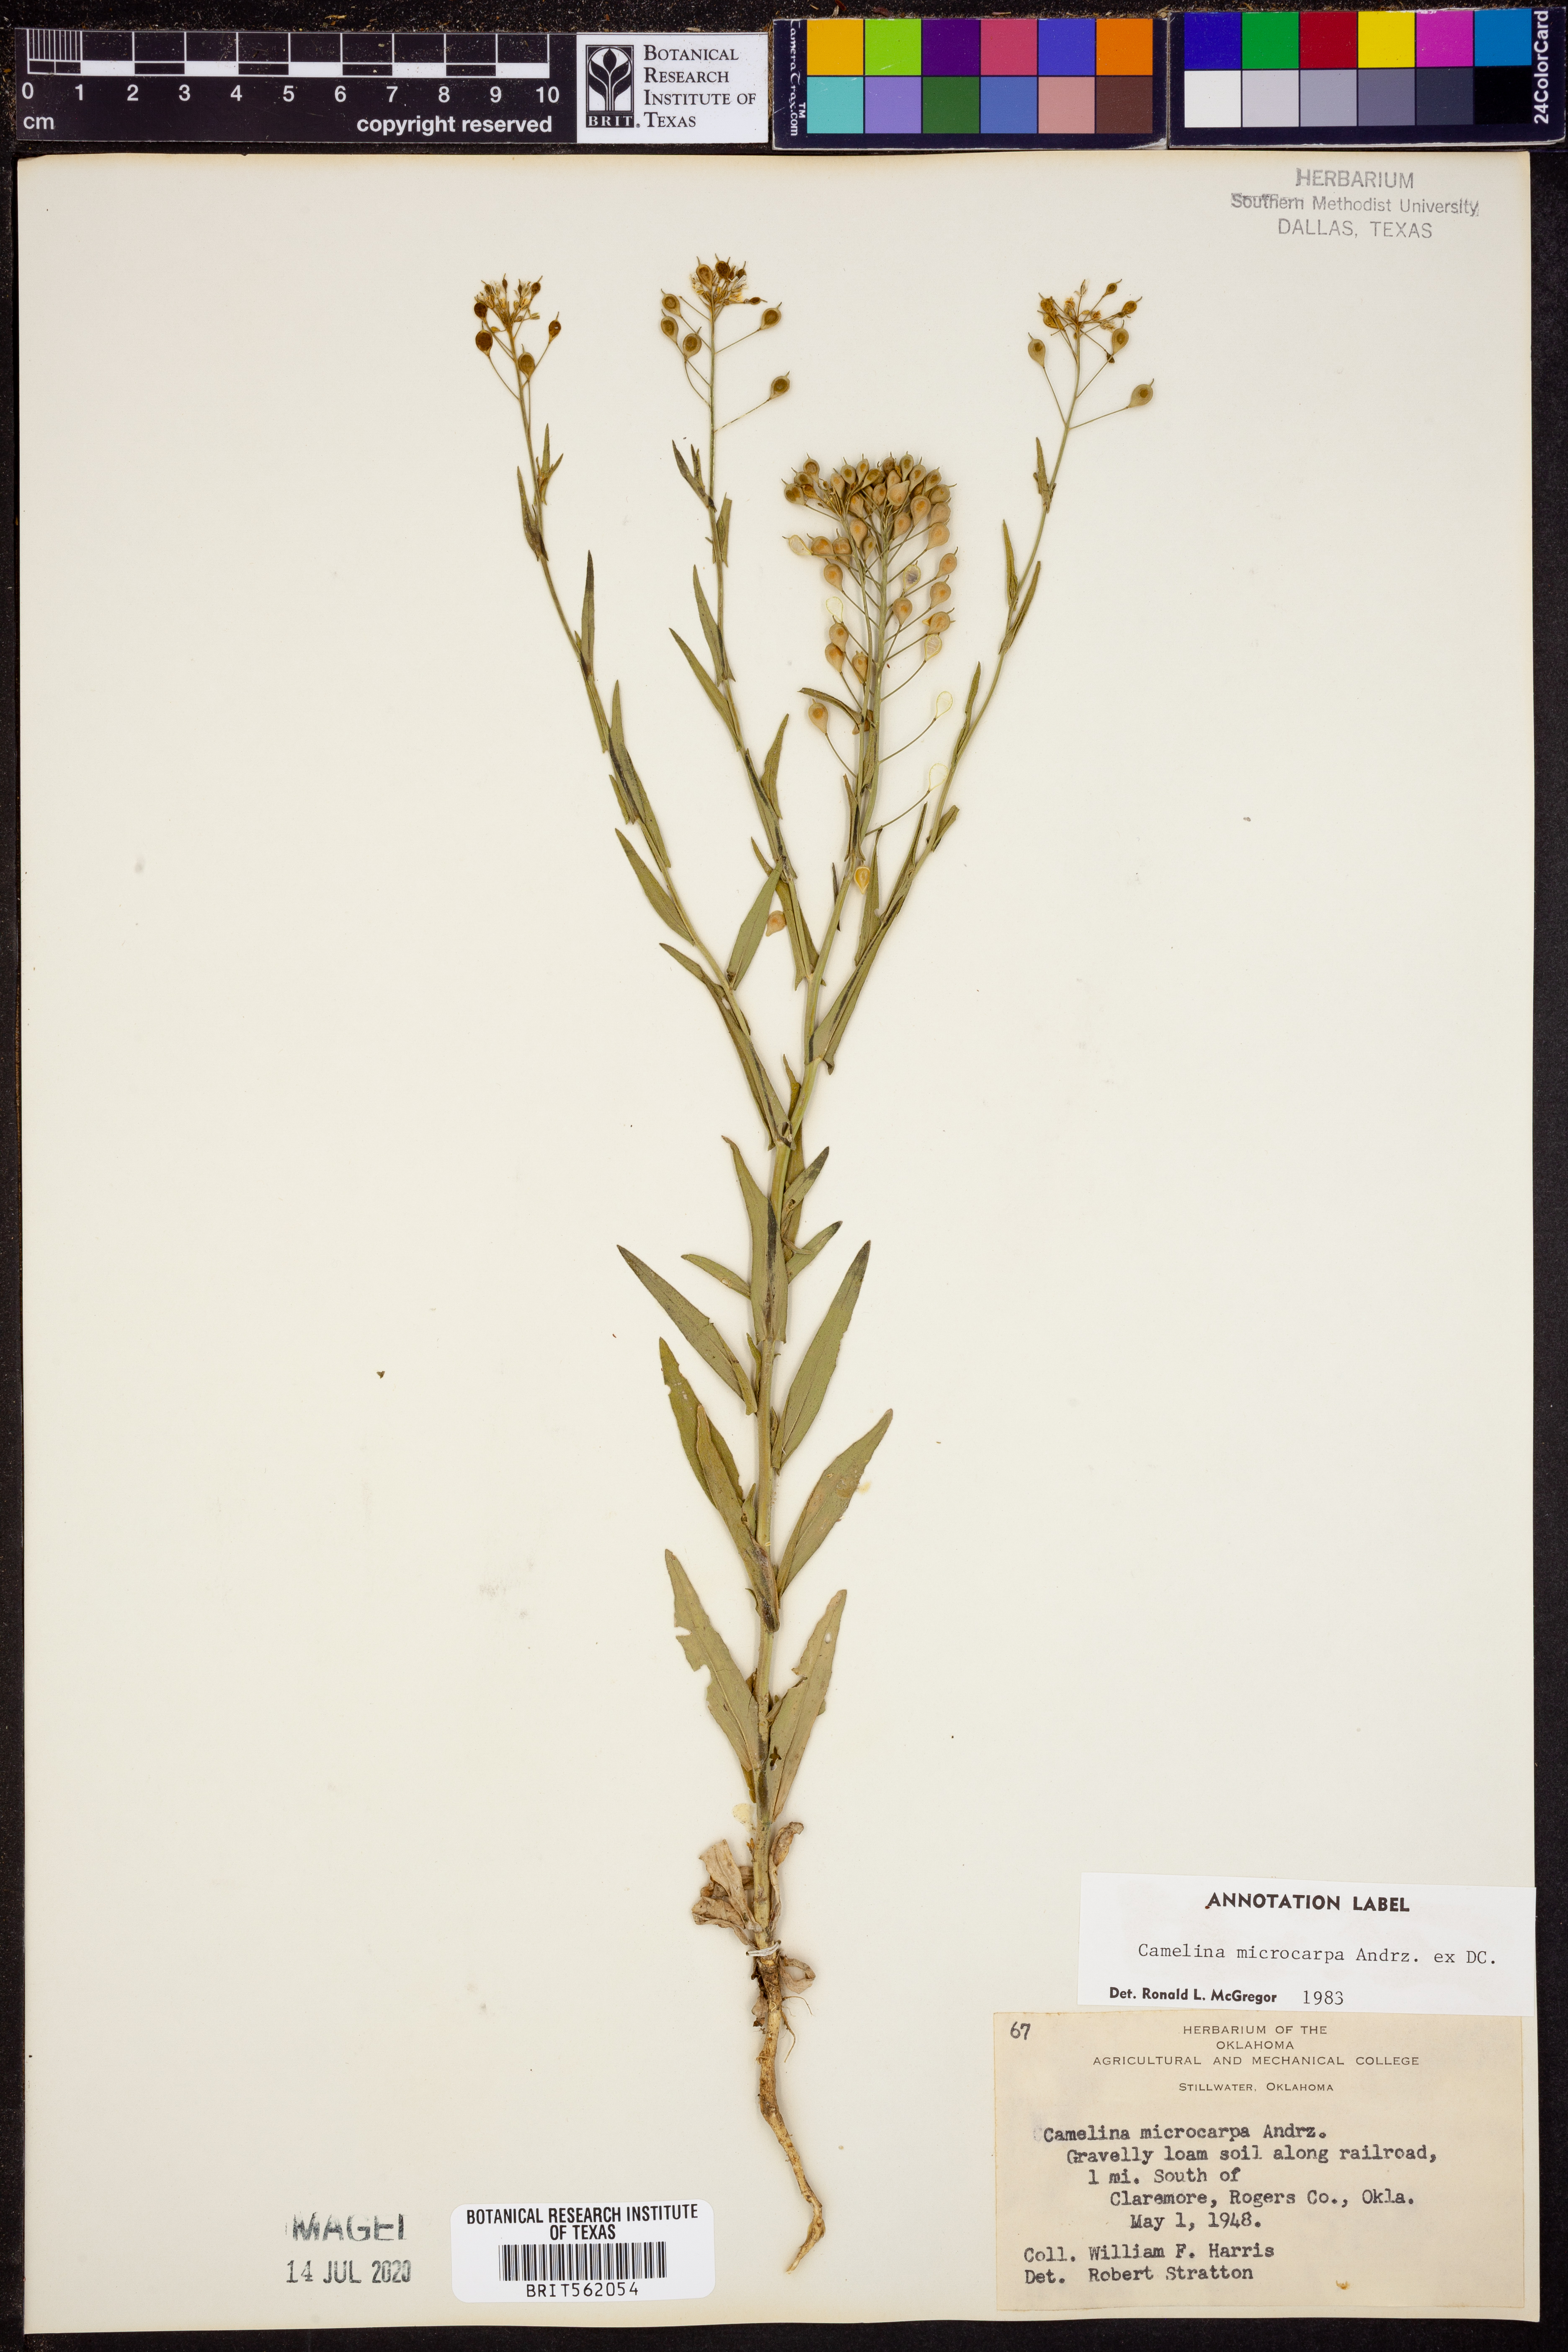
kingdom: Plantae
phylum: Tracheophyta
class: Magnoliopsida
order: Brassicales
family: Brassicaceae
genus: Camelina
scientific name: Camelina microcarpa
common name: Lesser gold-of-pleasure
